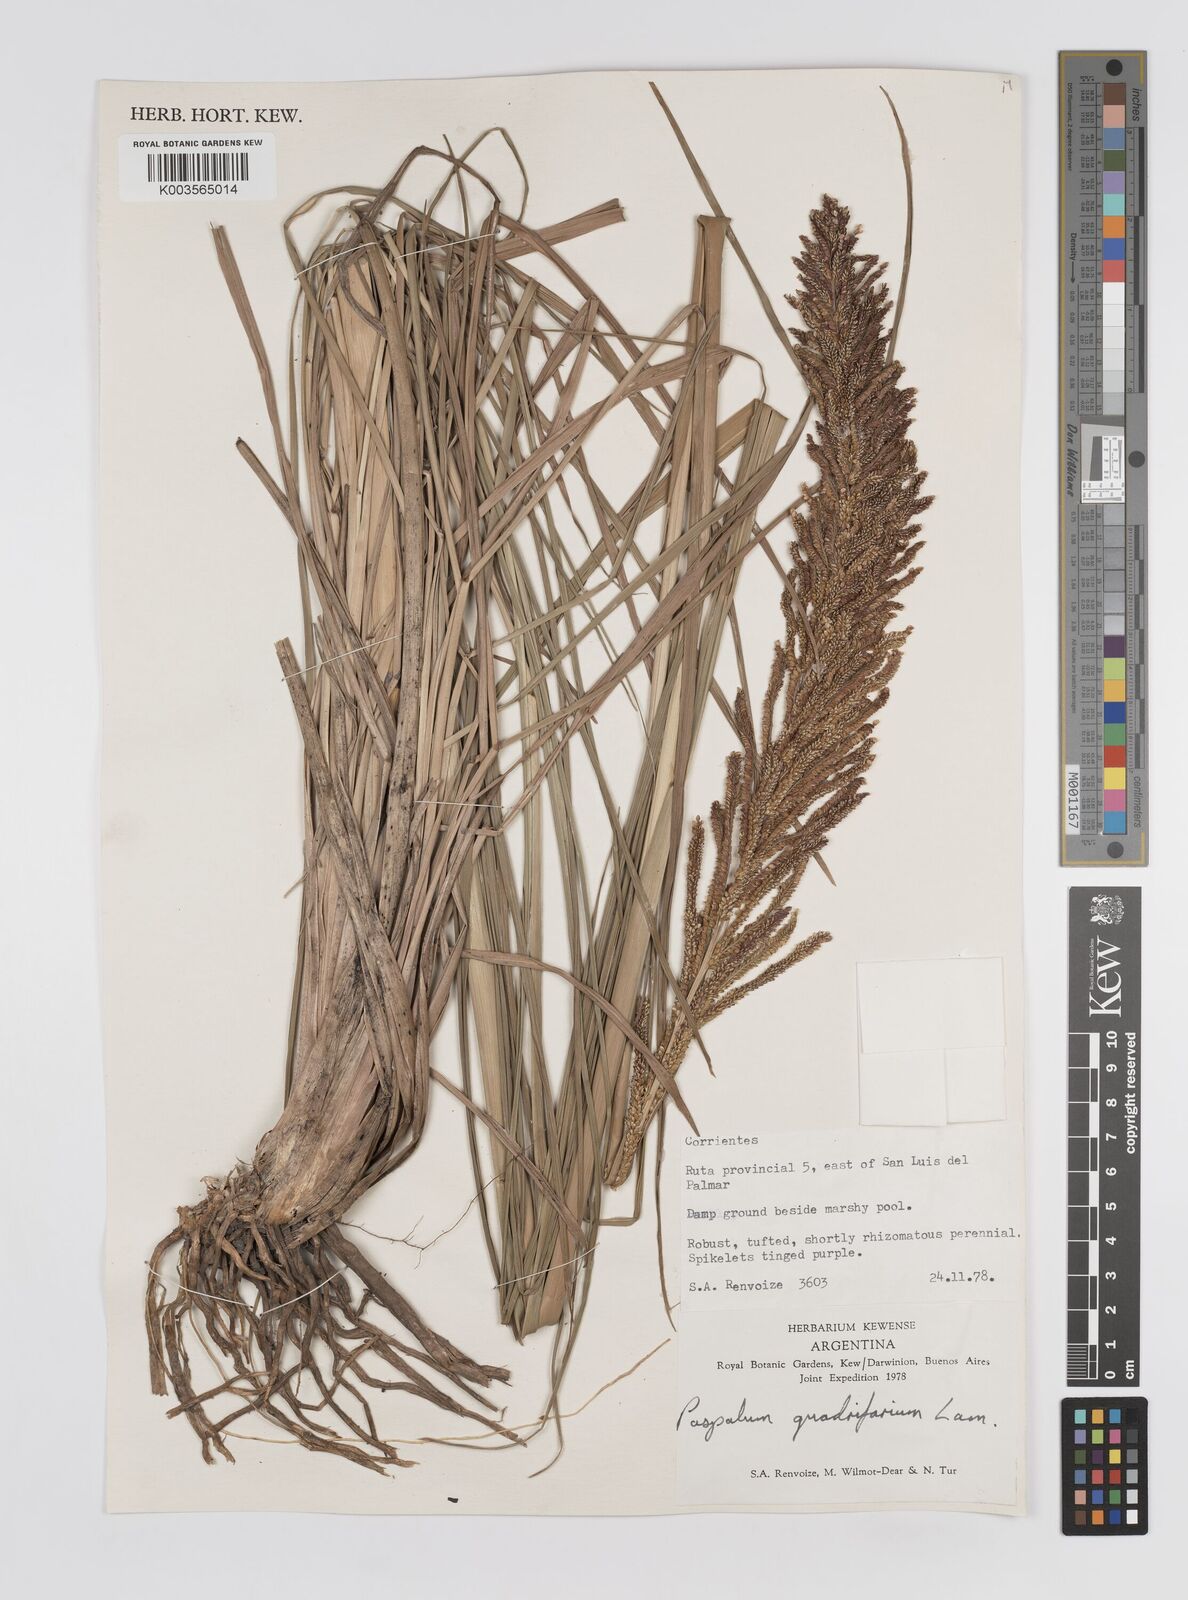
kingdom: Plantae
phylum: Tracheophyta
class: Liliopsida
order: Poales
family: Poaceae
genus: Paspalum
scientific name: Paspalum intermedium
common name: Intermediate paspalum
